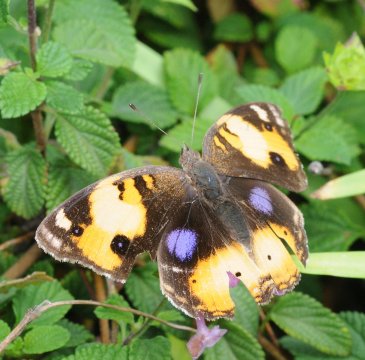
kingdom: Animalia
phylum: Arthropoda
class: Insecta
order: Lepidoptera
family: Nymphalidae
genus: Junonia
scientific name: Junonia hierta
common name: Yellow Pansy
